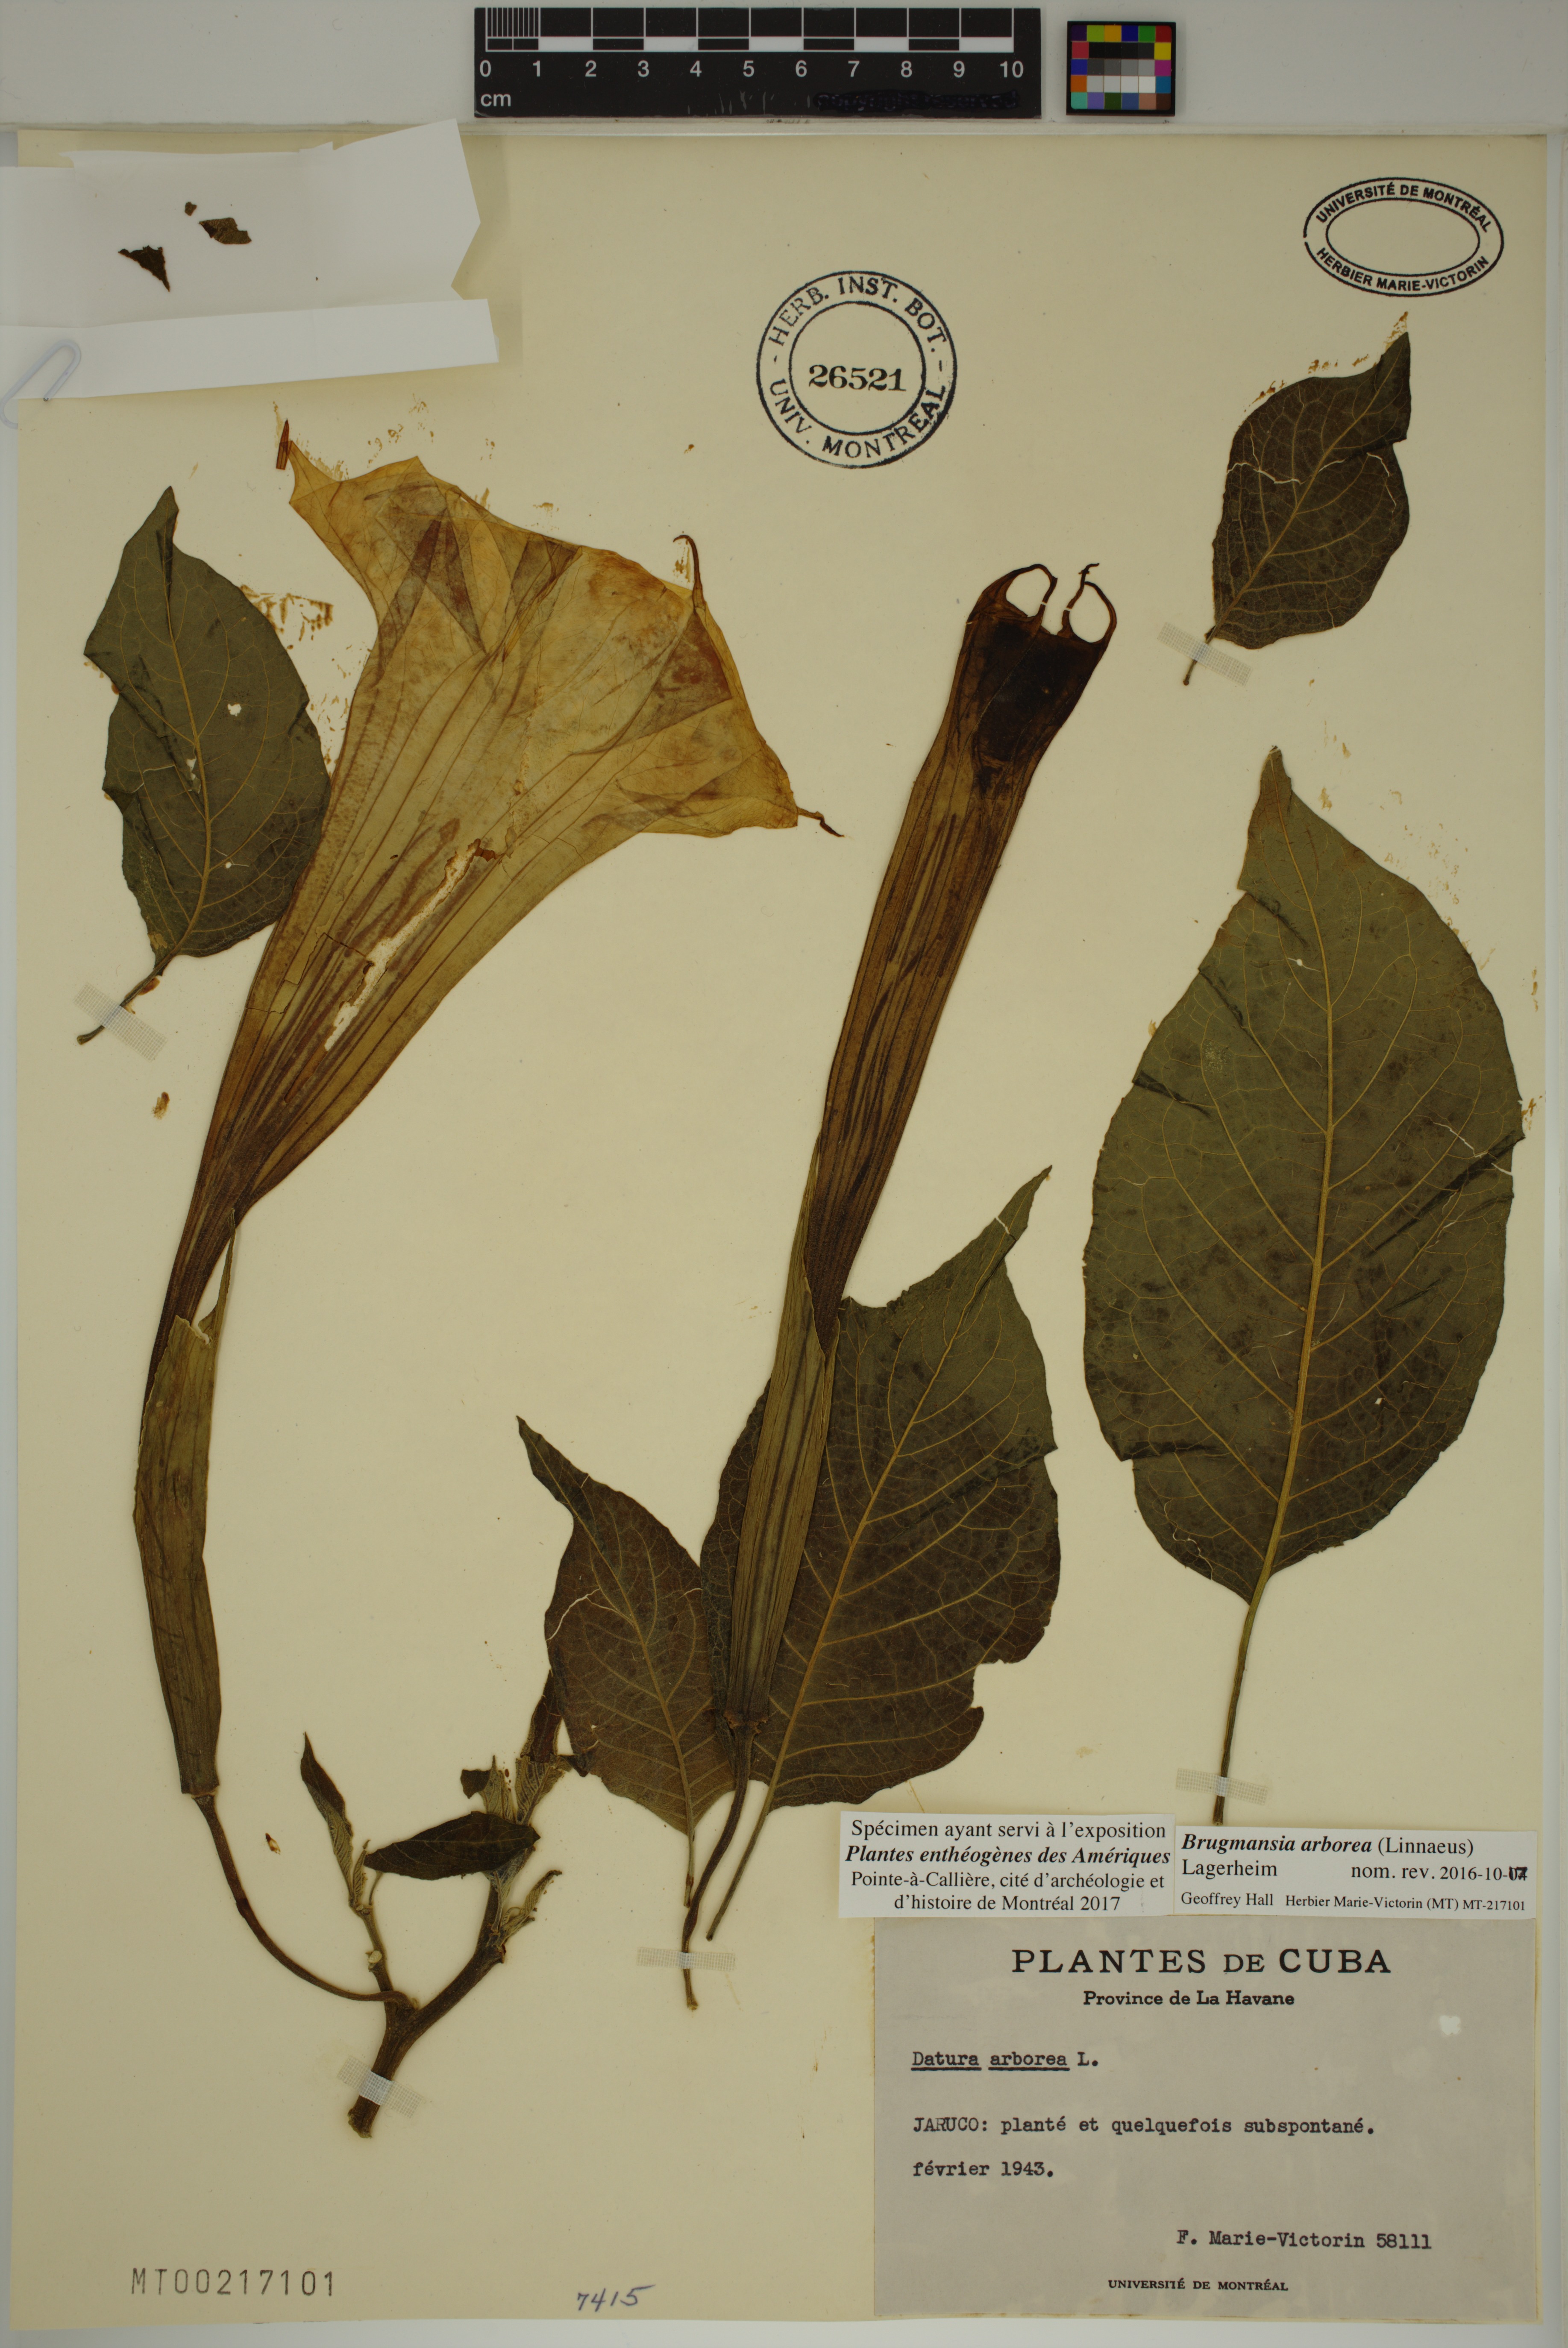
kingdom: Plantae
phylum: Tracheophyta
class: Magnoliopsida
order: Solanales
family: Solanaceae
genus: Brugmansia
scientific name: Brugmansia arborea
